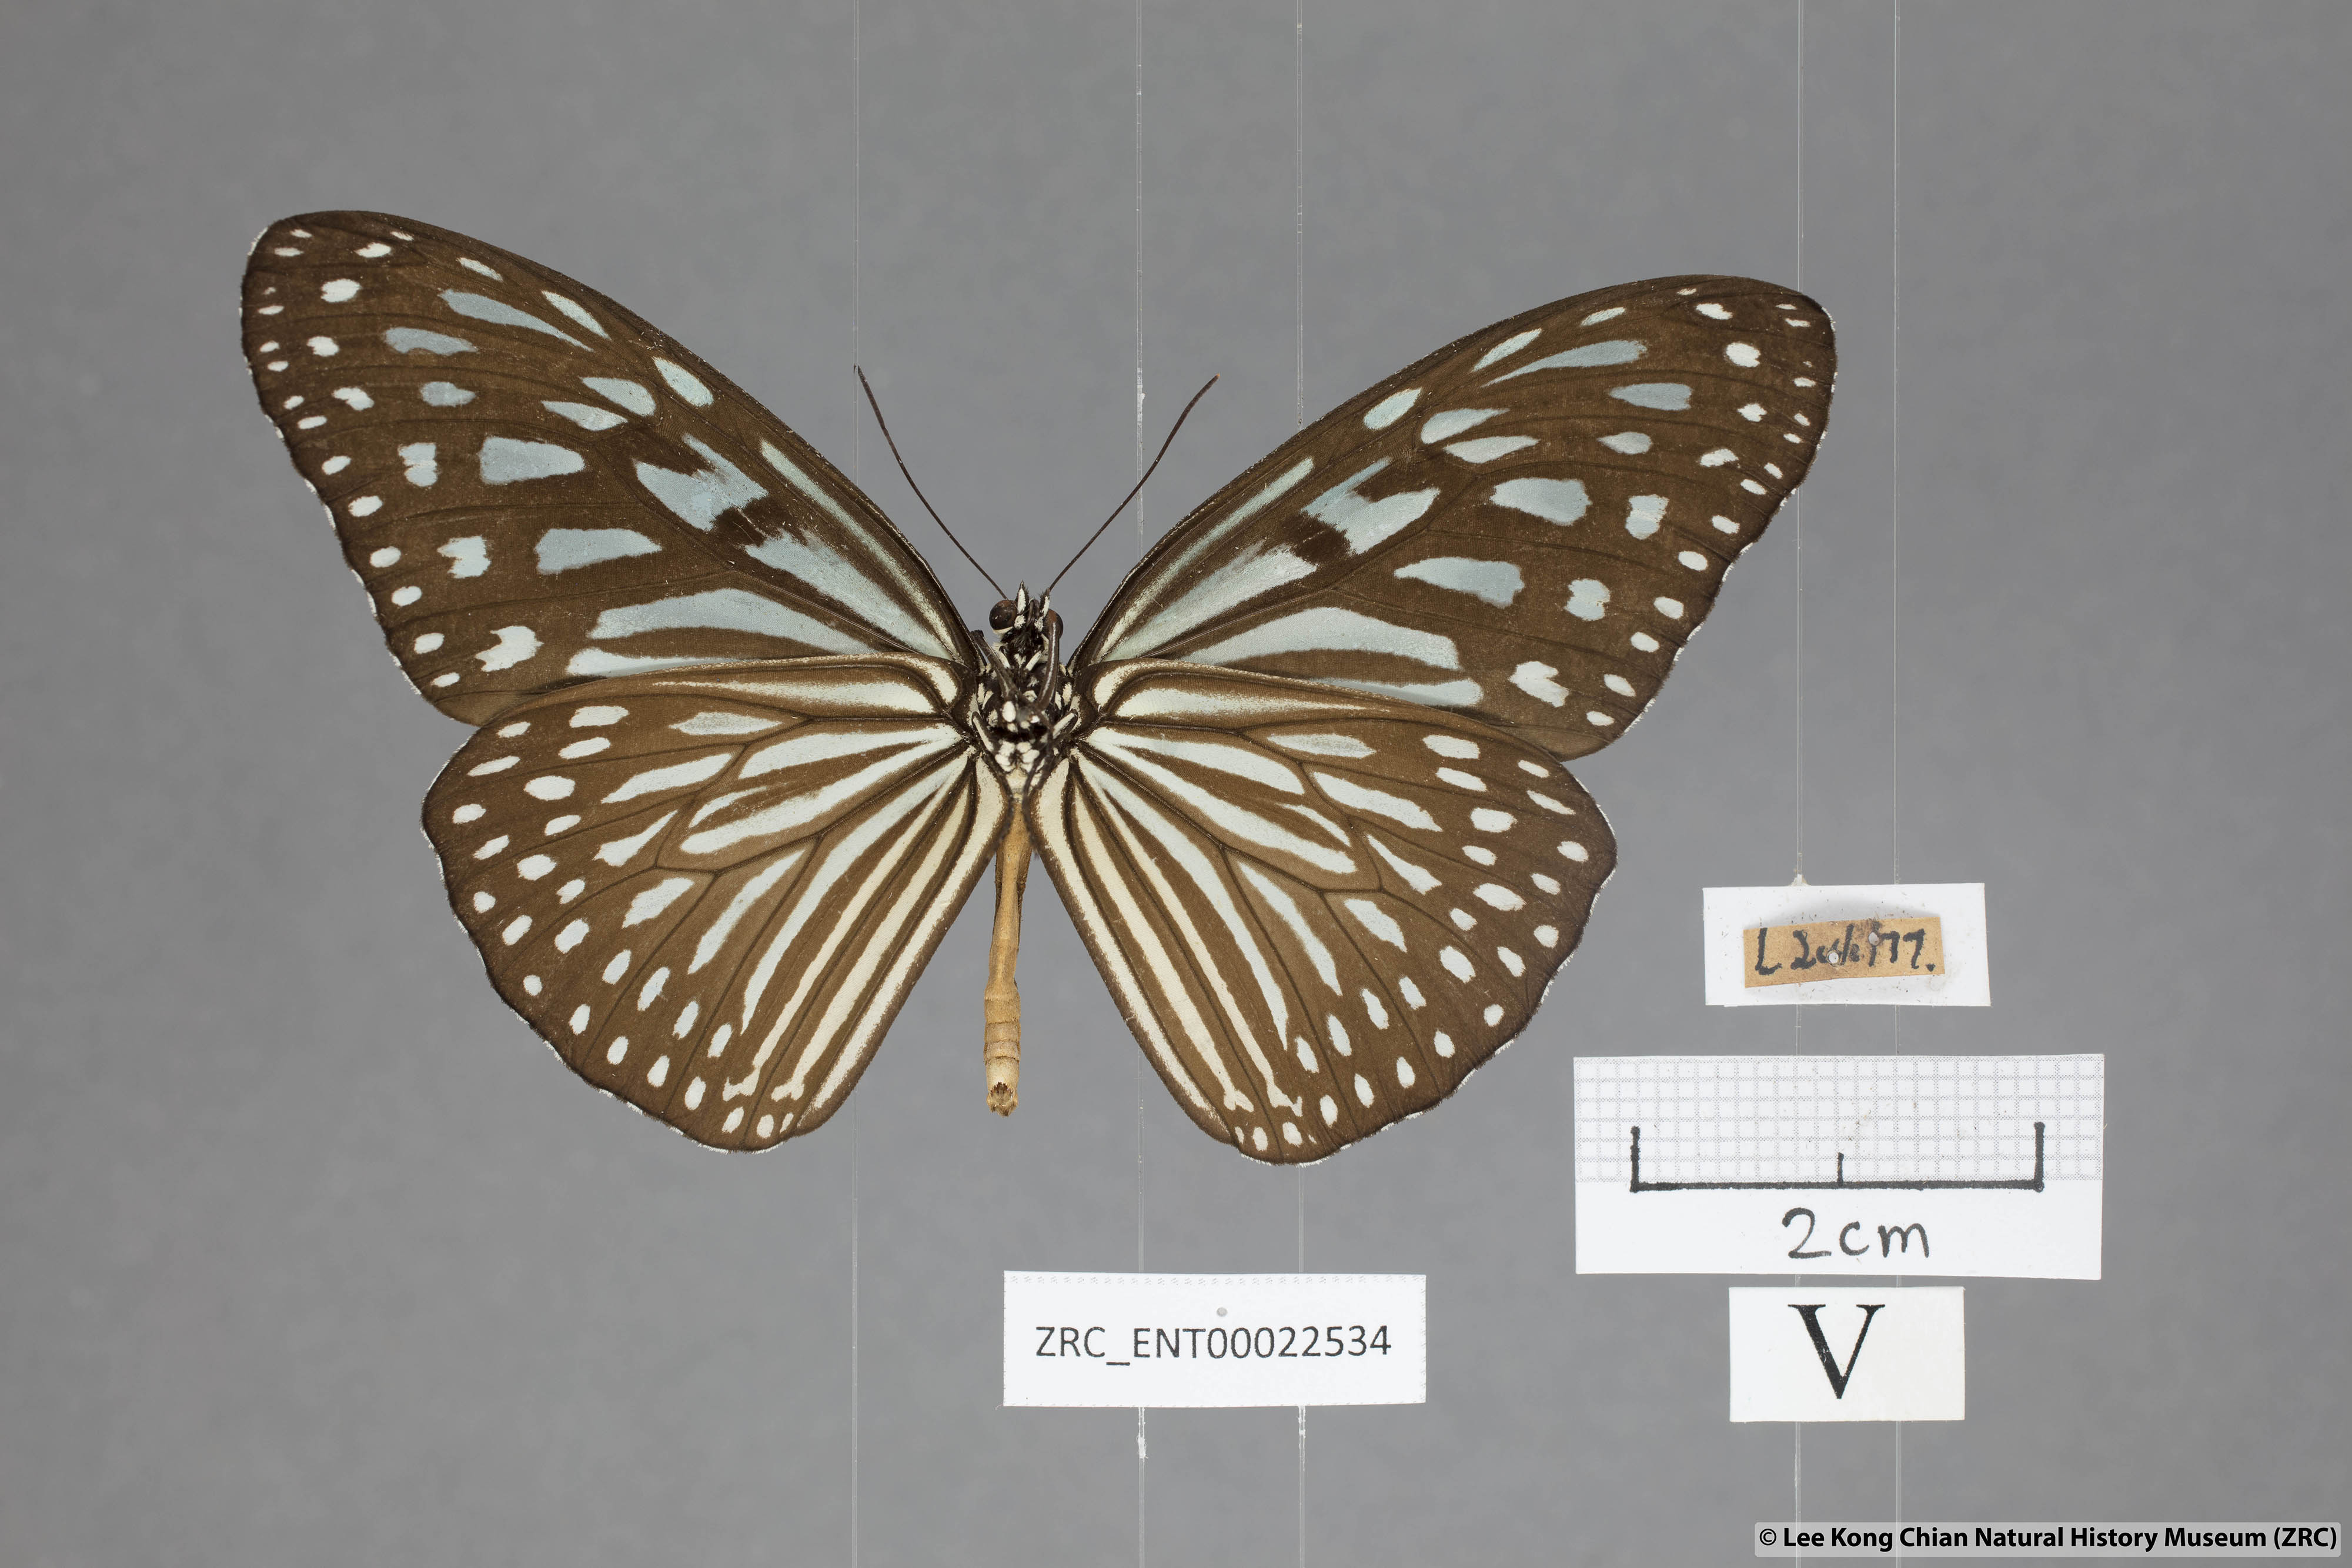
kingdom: Animalia
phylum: Arthropoda
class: Insecta
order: Lepidoptera
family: Nymphalidae
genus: Ideopsis
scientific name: Ideopsis vulgaris
